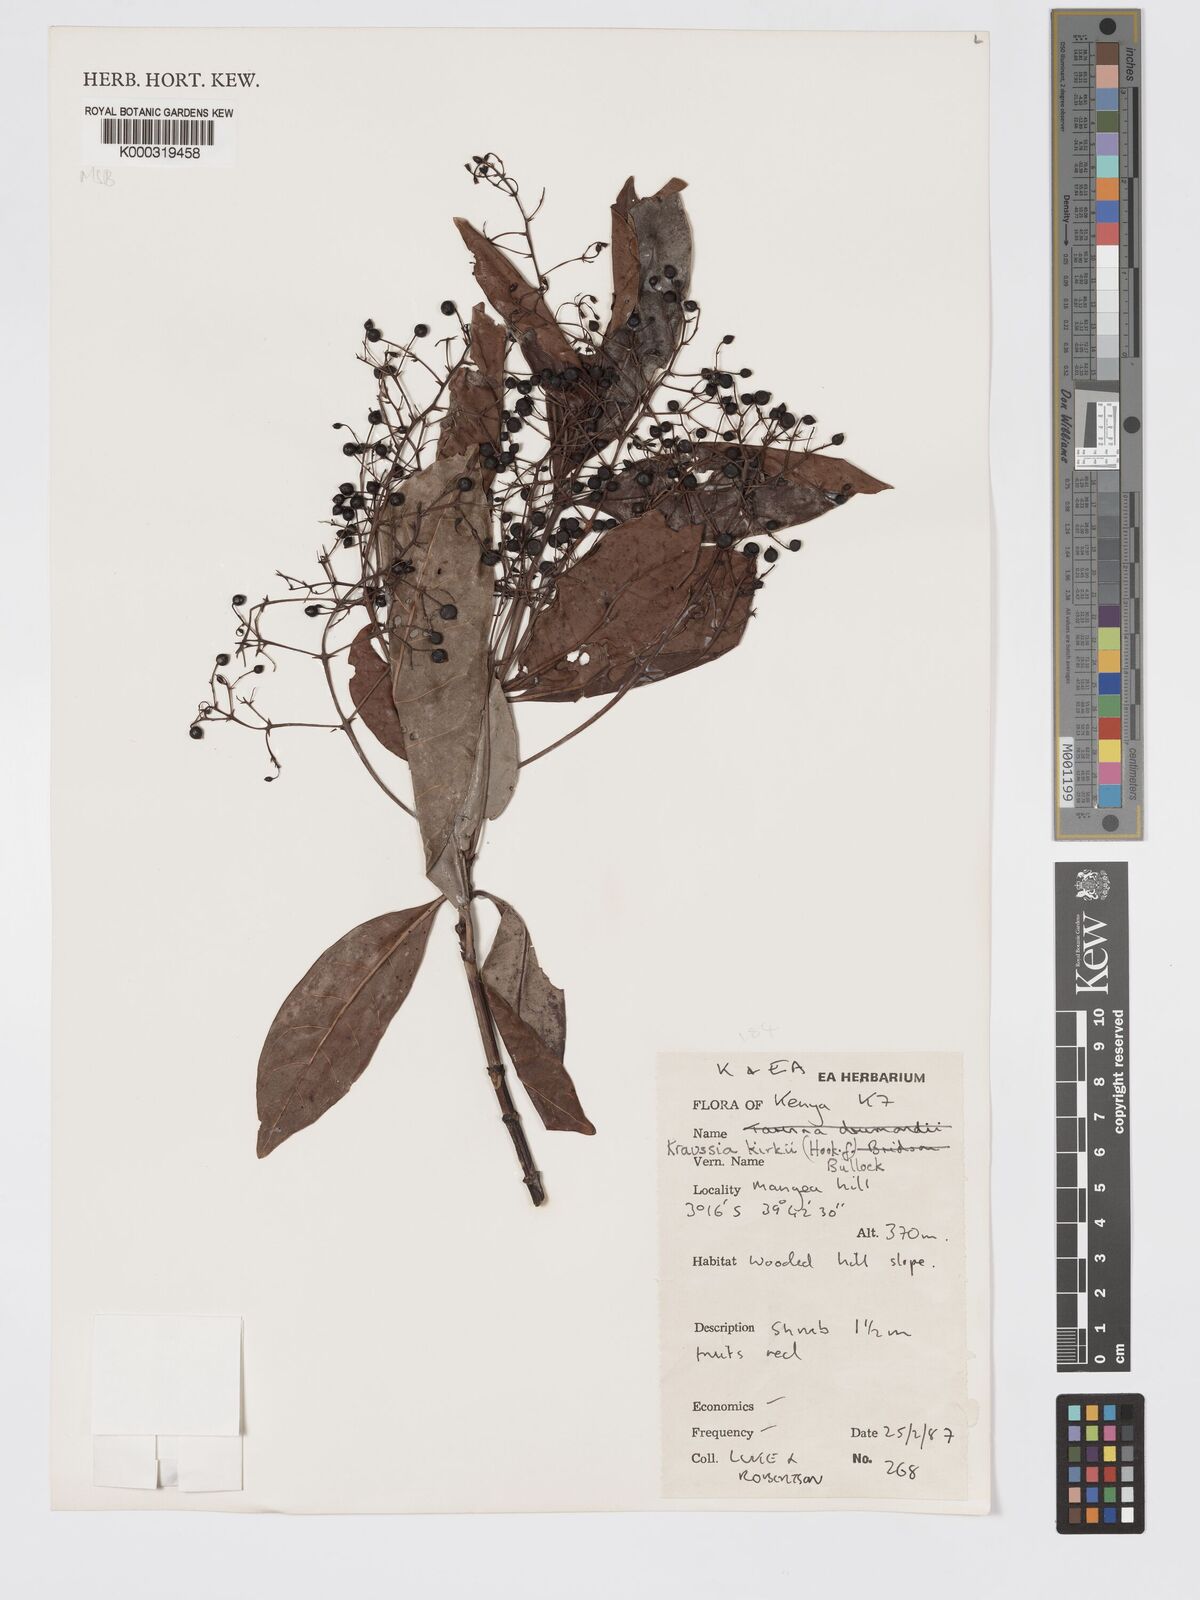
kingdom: Plantae
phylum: Tracheophyta
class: Magnoliopsida
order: Gentianales
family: Rubiaceae
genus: Kraussia
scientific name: Kraussia kirkii
